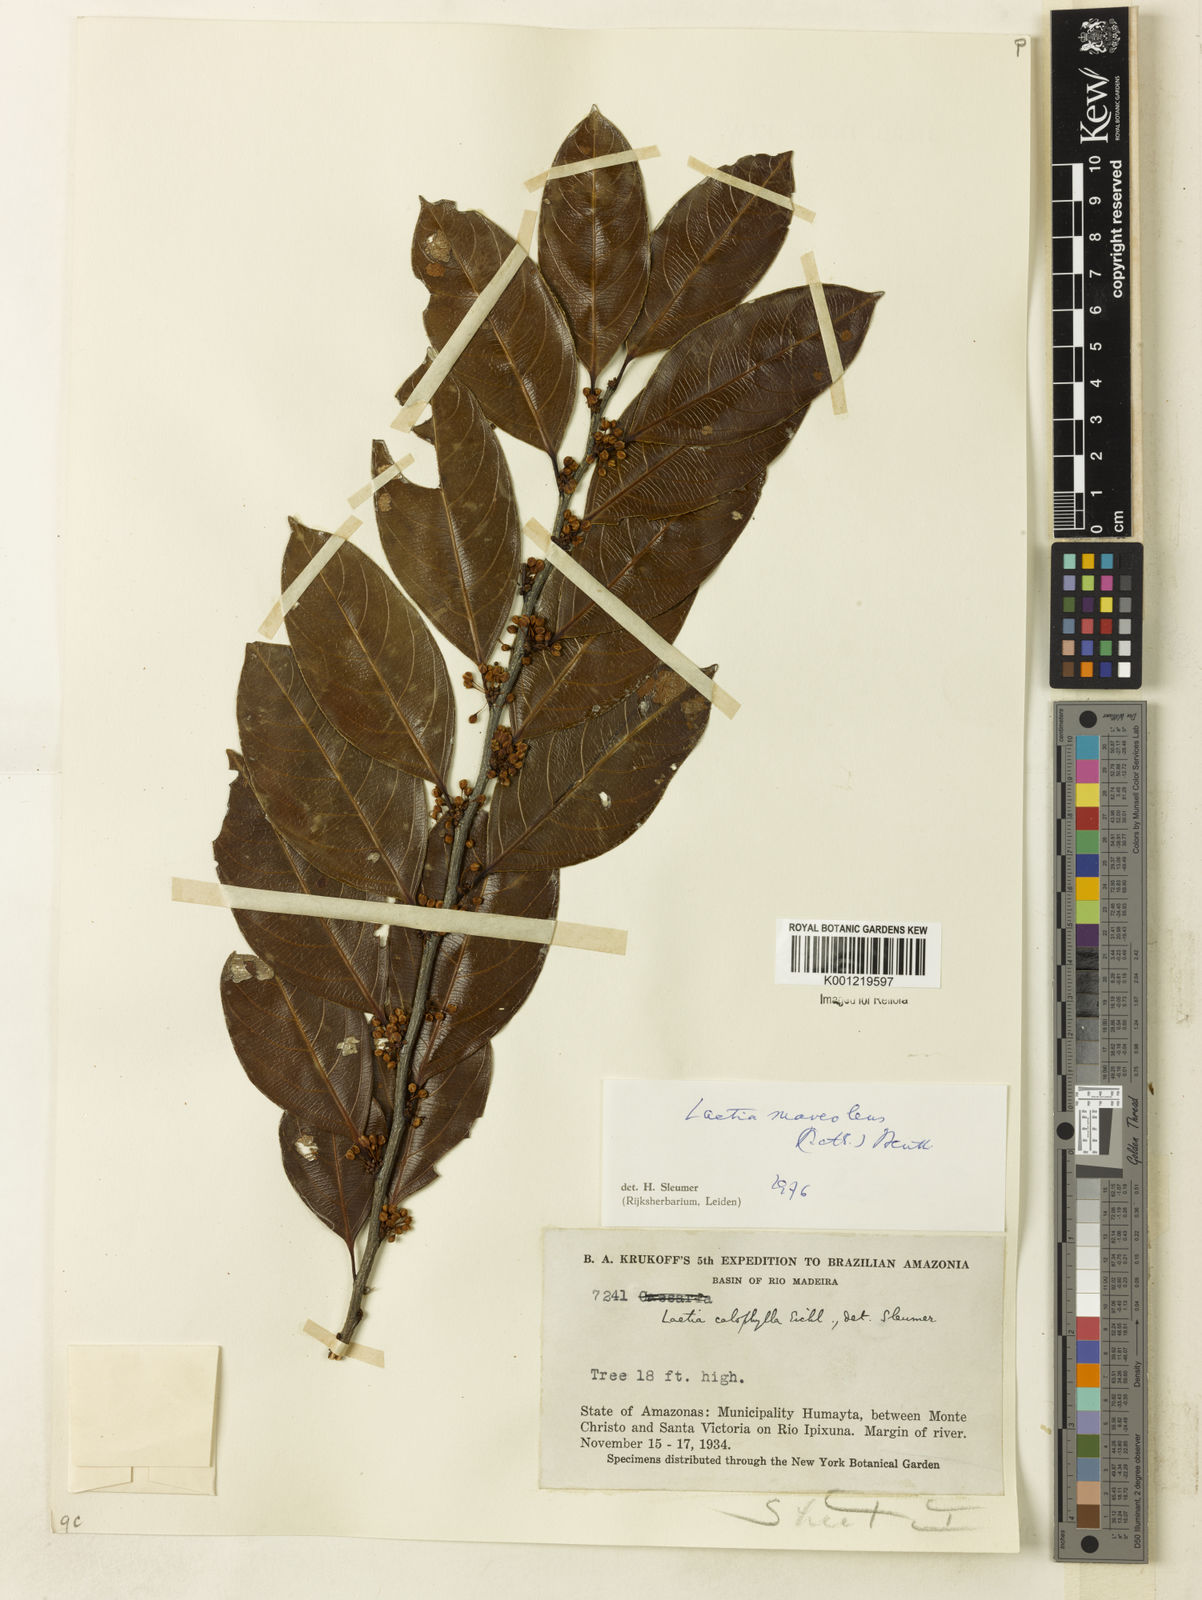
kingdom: Plantae
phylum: Tracheophyta
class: Magnoliopsida
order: Malpighiales
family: Salicaceae
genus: Casearia
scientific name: Casearia suaveolens
